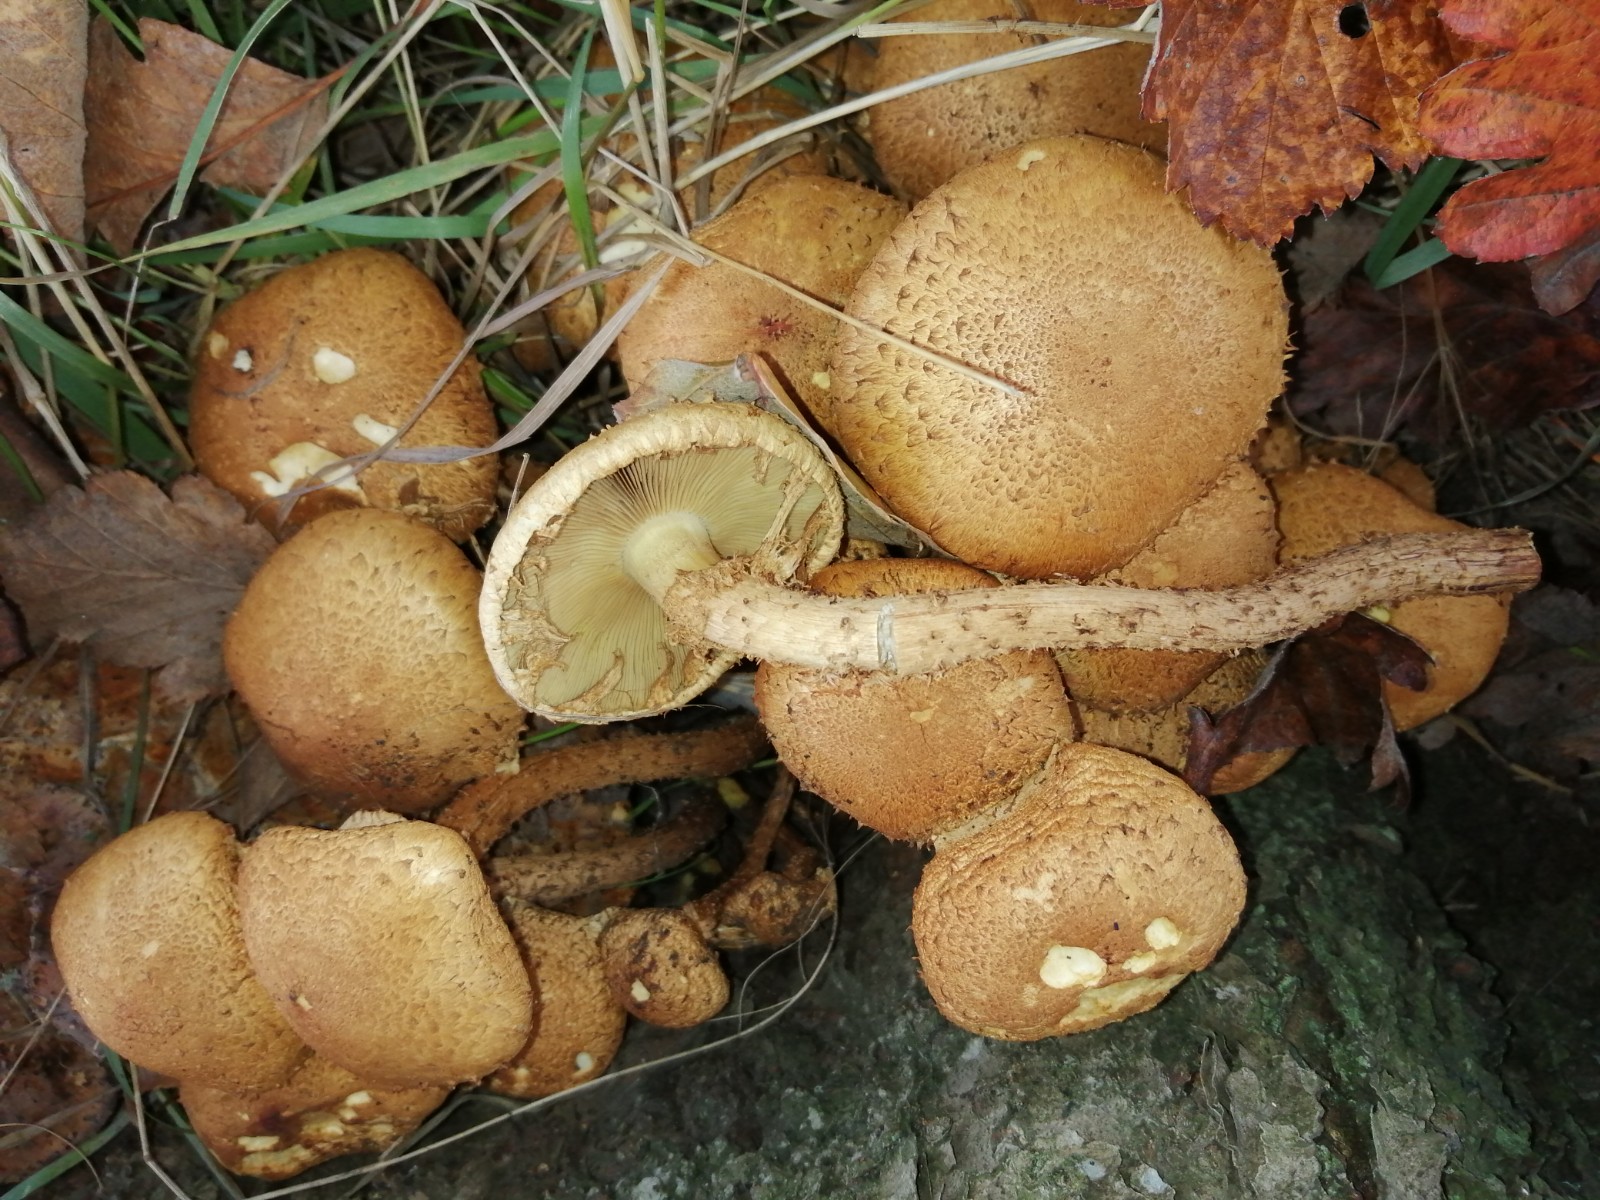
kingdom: Fungi
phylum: Basidiomycota
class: Agaricomycetes
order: Agaricales
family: Strophariaceae
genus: Pholiota
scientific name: Pholiota squarrosa
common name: krumskællet skælhat
